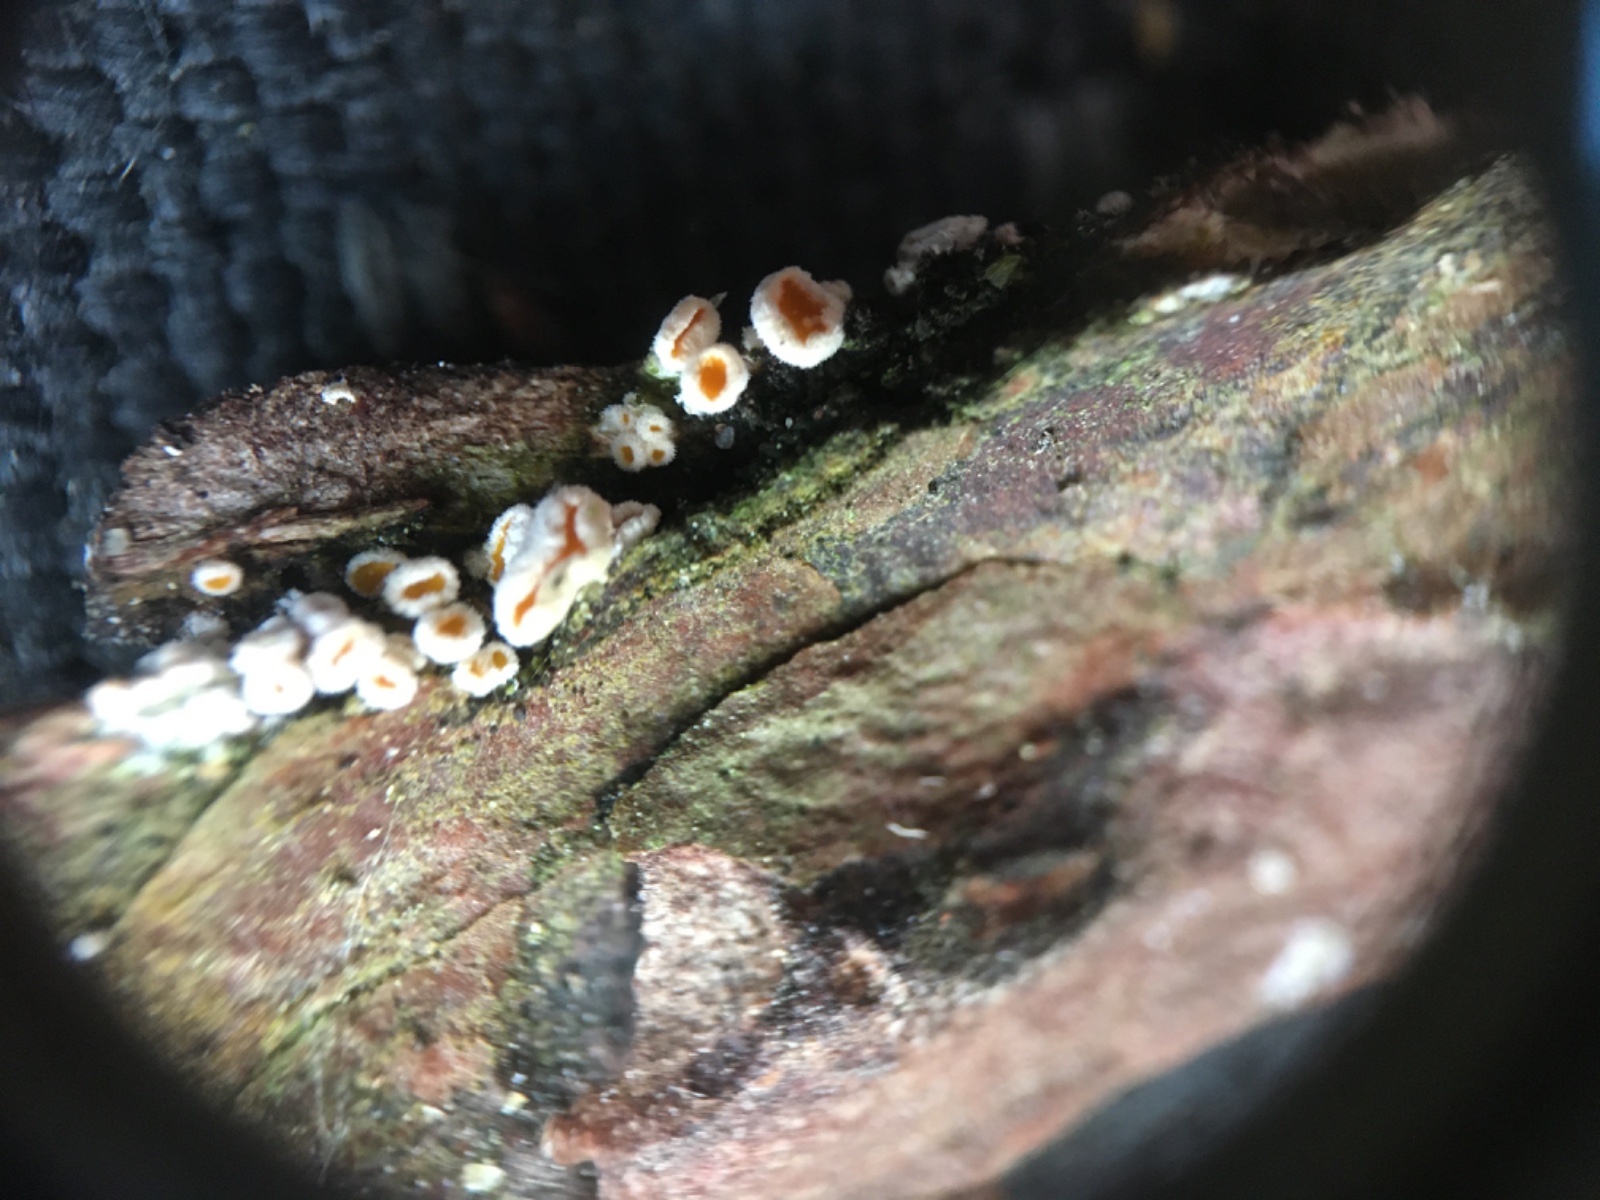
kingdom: Fungi
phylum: Ascomycota
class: Leotiomycetes
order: Helotiales
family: Lachnaceae
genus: Lachnellula
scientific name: Lachnellula calycina
